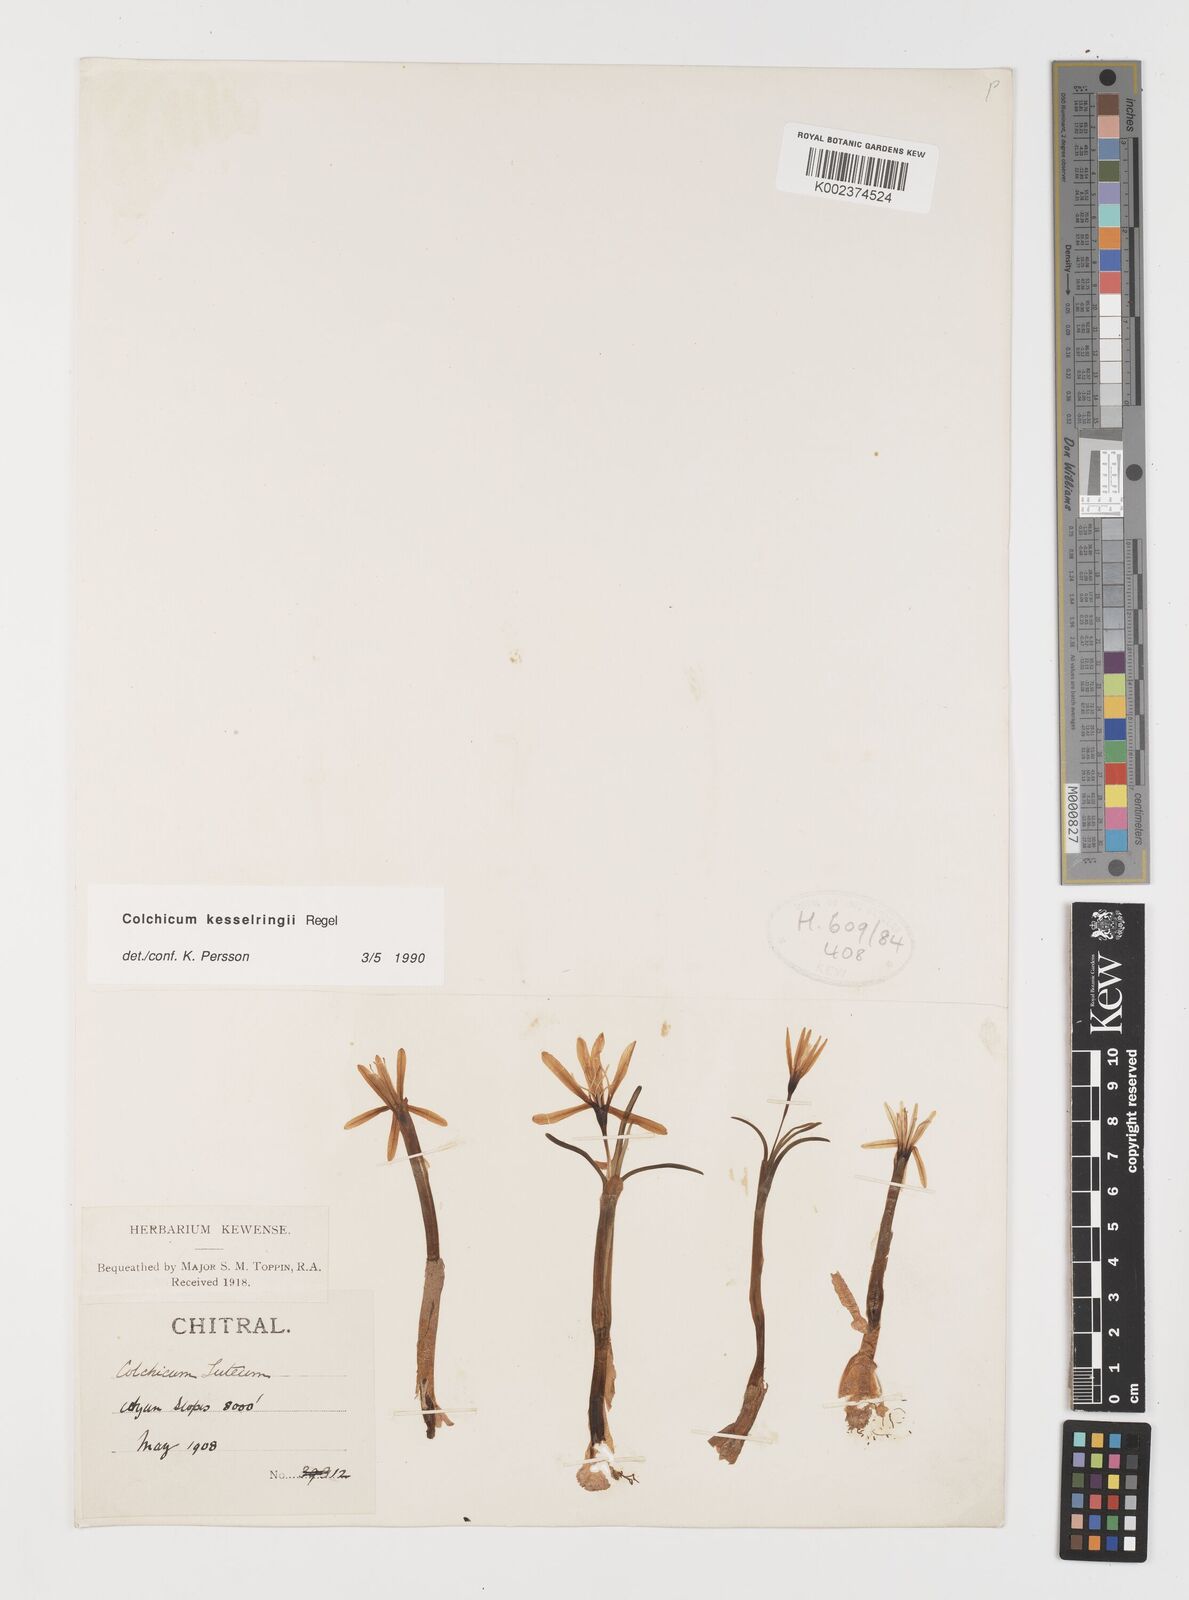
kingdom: Plantae
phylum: Tracheophyta
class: Liliopsida
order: Liliales
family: Colchicaceae
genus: Colchicum
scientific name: Colchicum kesselringii
